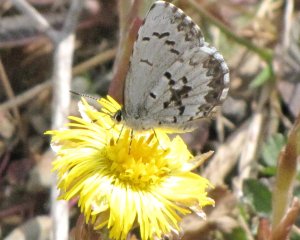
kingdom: Animalia
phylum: Arthropoda
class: Insecta
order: Lepidoptera
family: Lycaenidae
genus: Celastrina
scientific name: Celastrina lucia
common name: Northern Spring Azure
